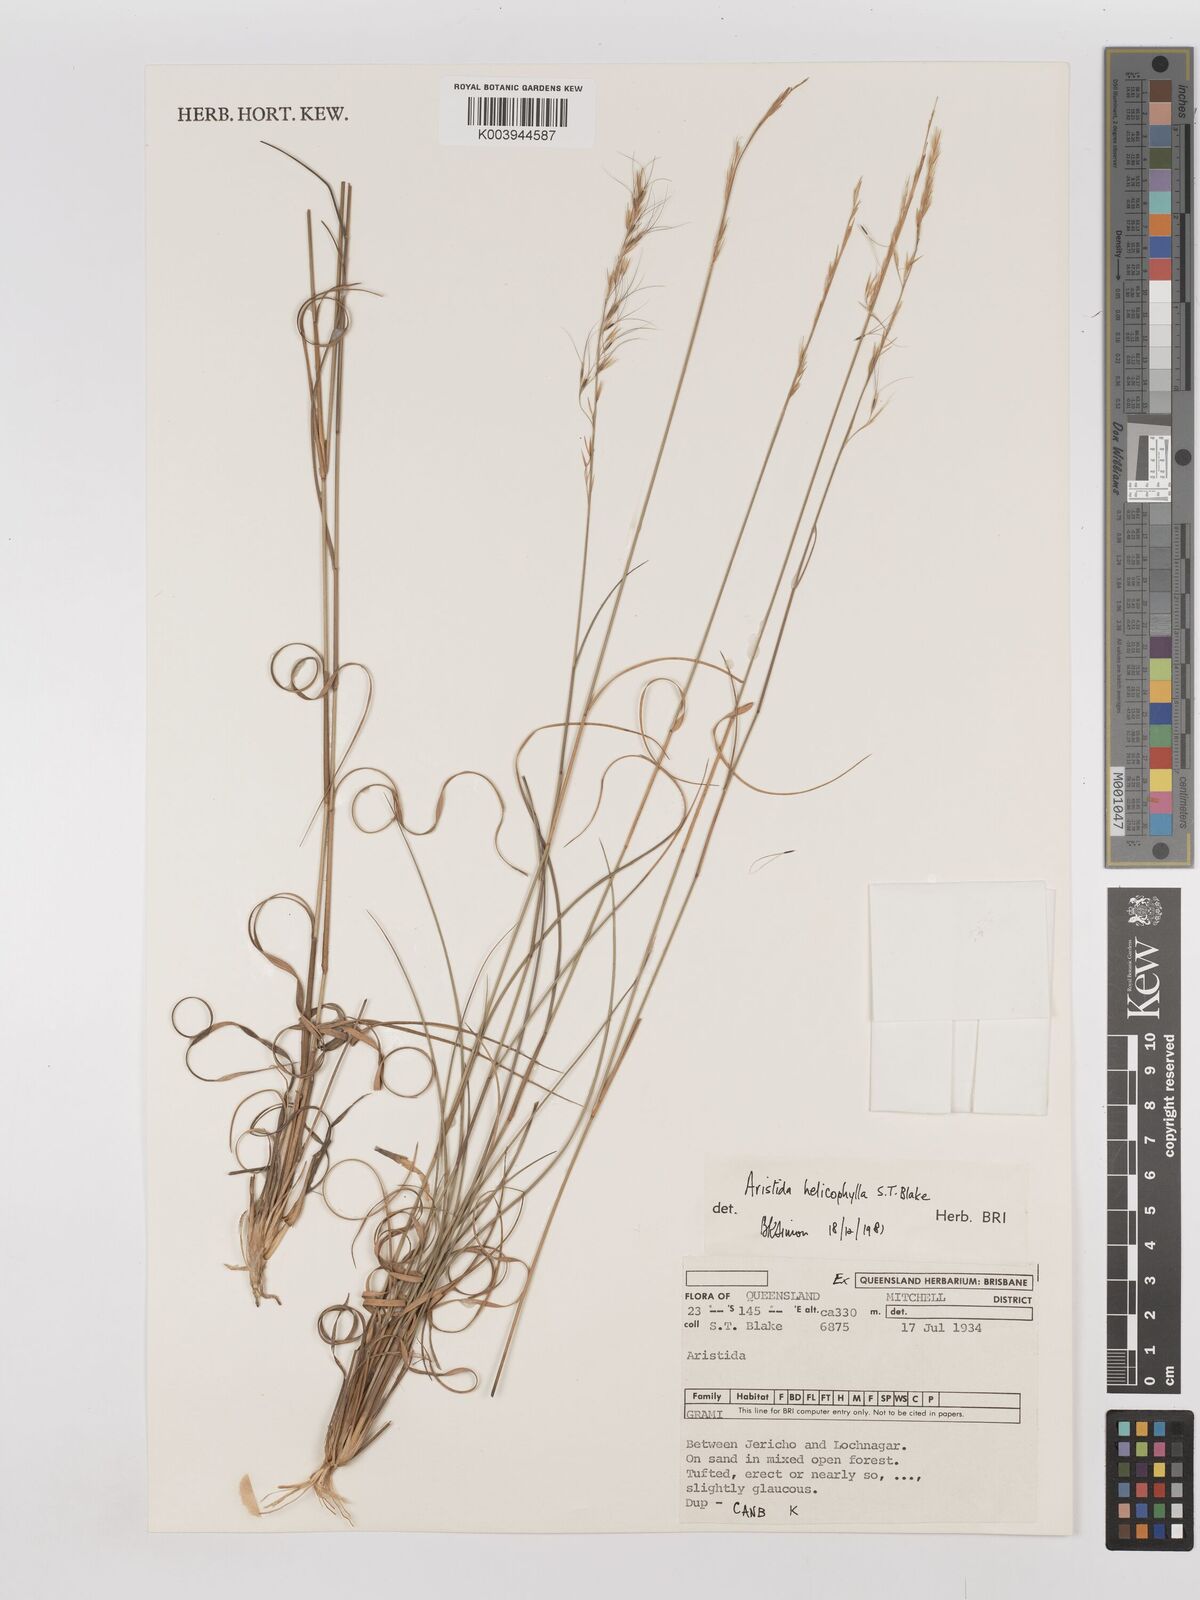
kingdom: Plantae
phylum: Tracheophyta
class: Liliopsida
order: Poales
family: Poaceae
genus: Aristida
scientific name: Aristida helicophylla
